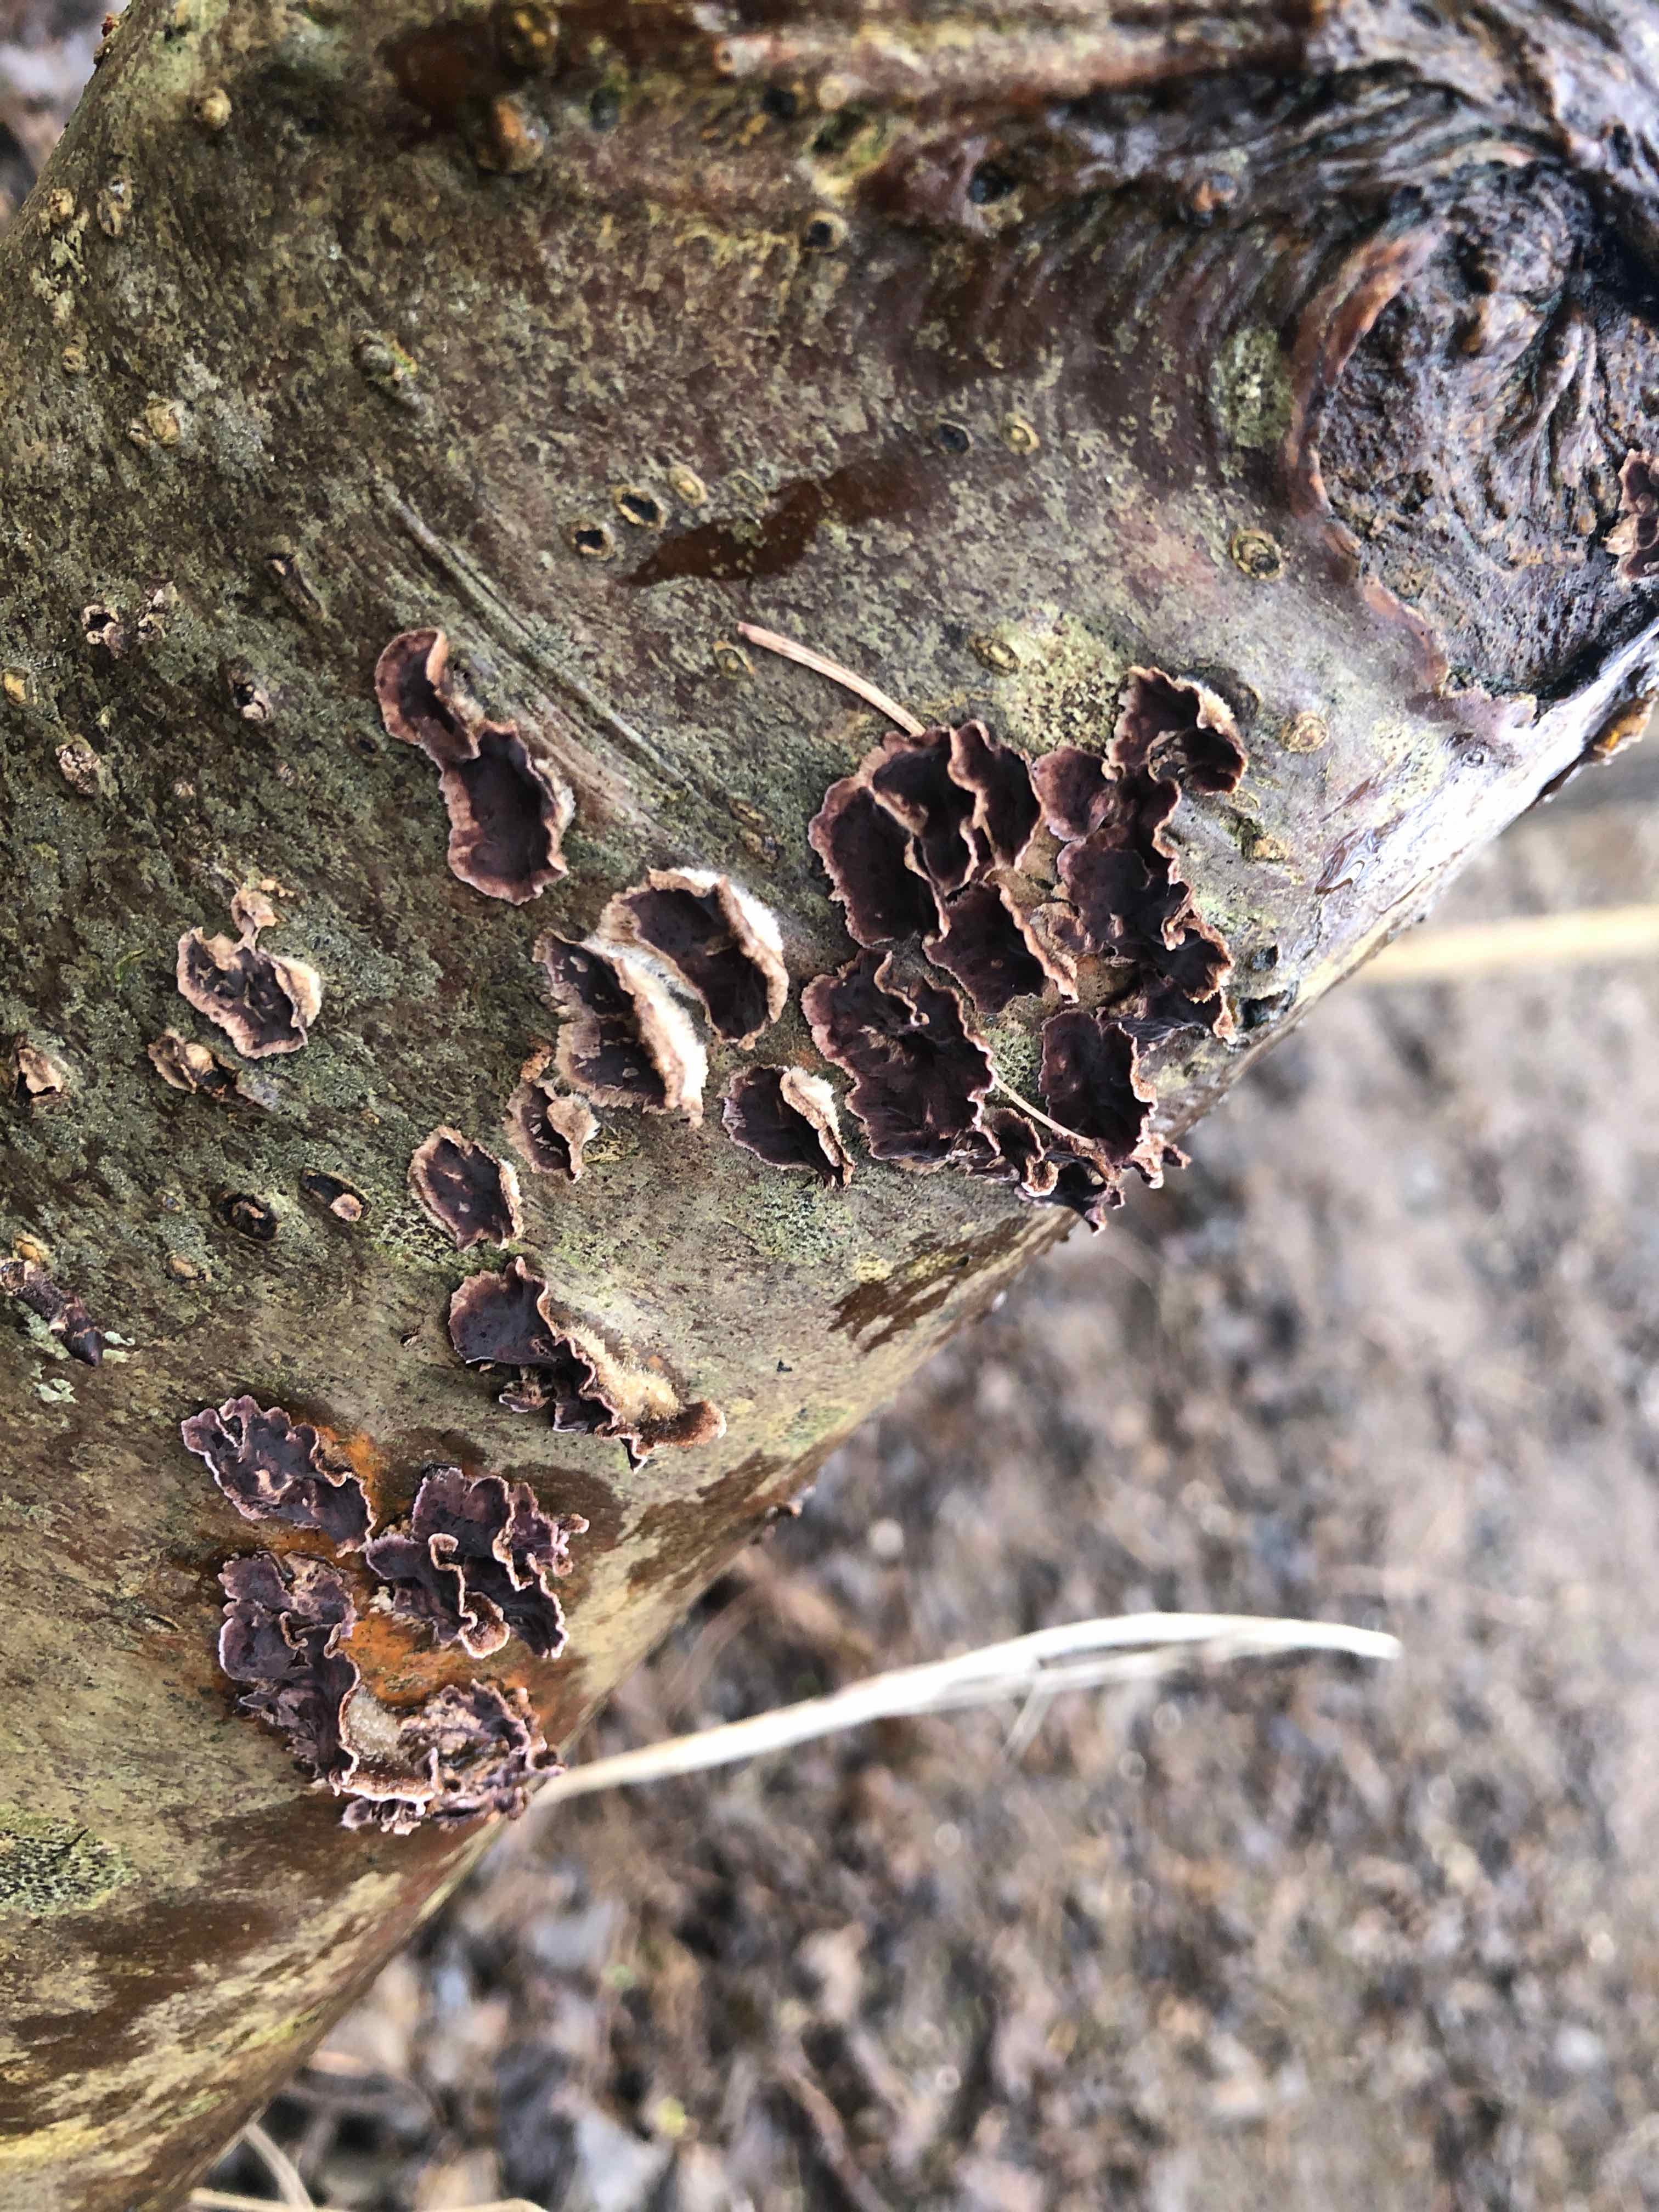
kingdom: Fungi
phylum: Basidiomycota
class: Agaricomycetes
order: Agaricales
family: Cyphellaceae
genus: Chondrostereum
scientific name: Chondrostereum purpureum
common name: purpurlædersvamp
